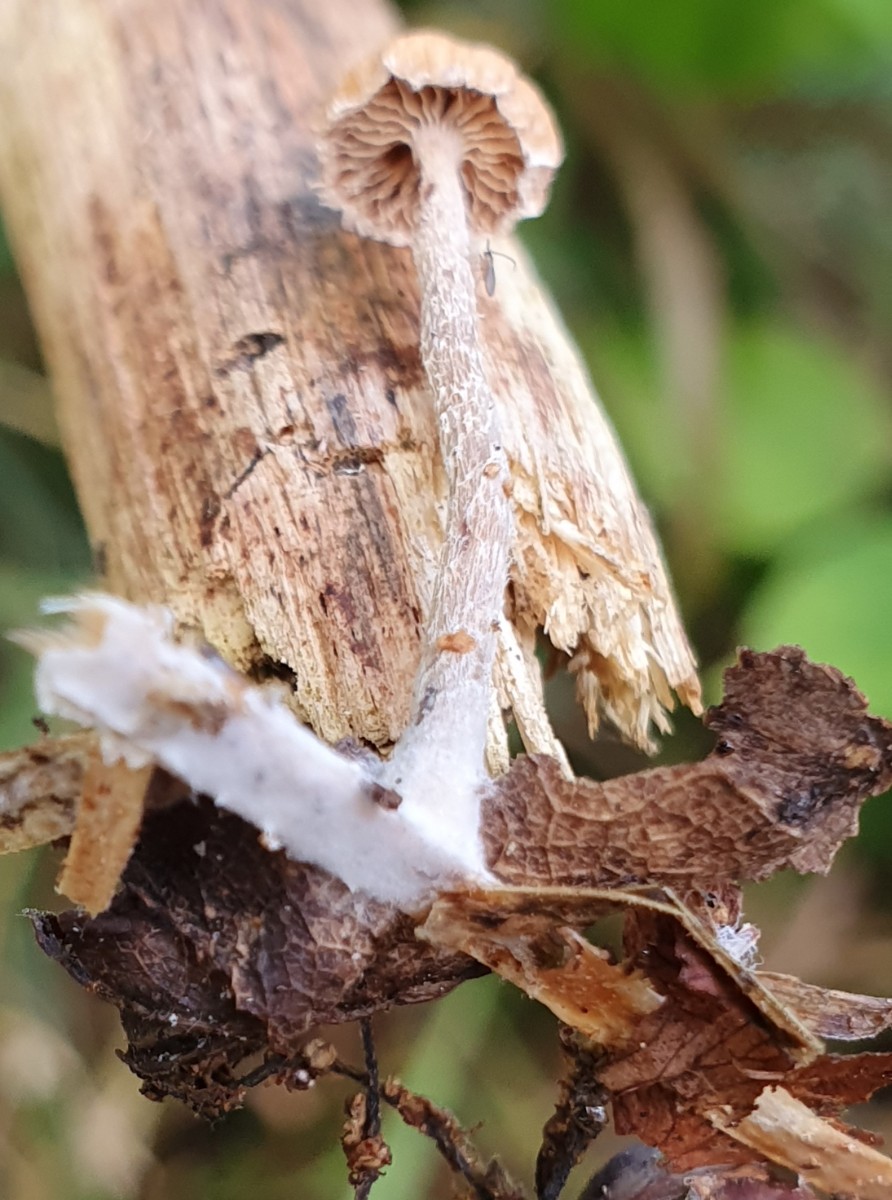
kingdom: Fungi
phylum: Basidiomycota
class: Agaricomycetes
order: Agaricales
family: Strophariaceae
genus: Deconica
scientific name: Deconica
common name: stråhat
